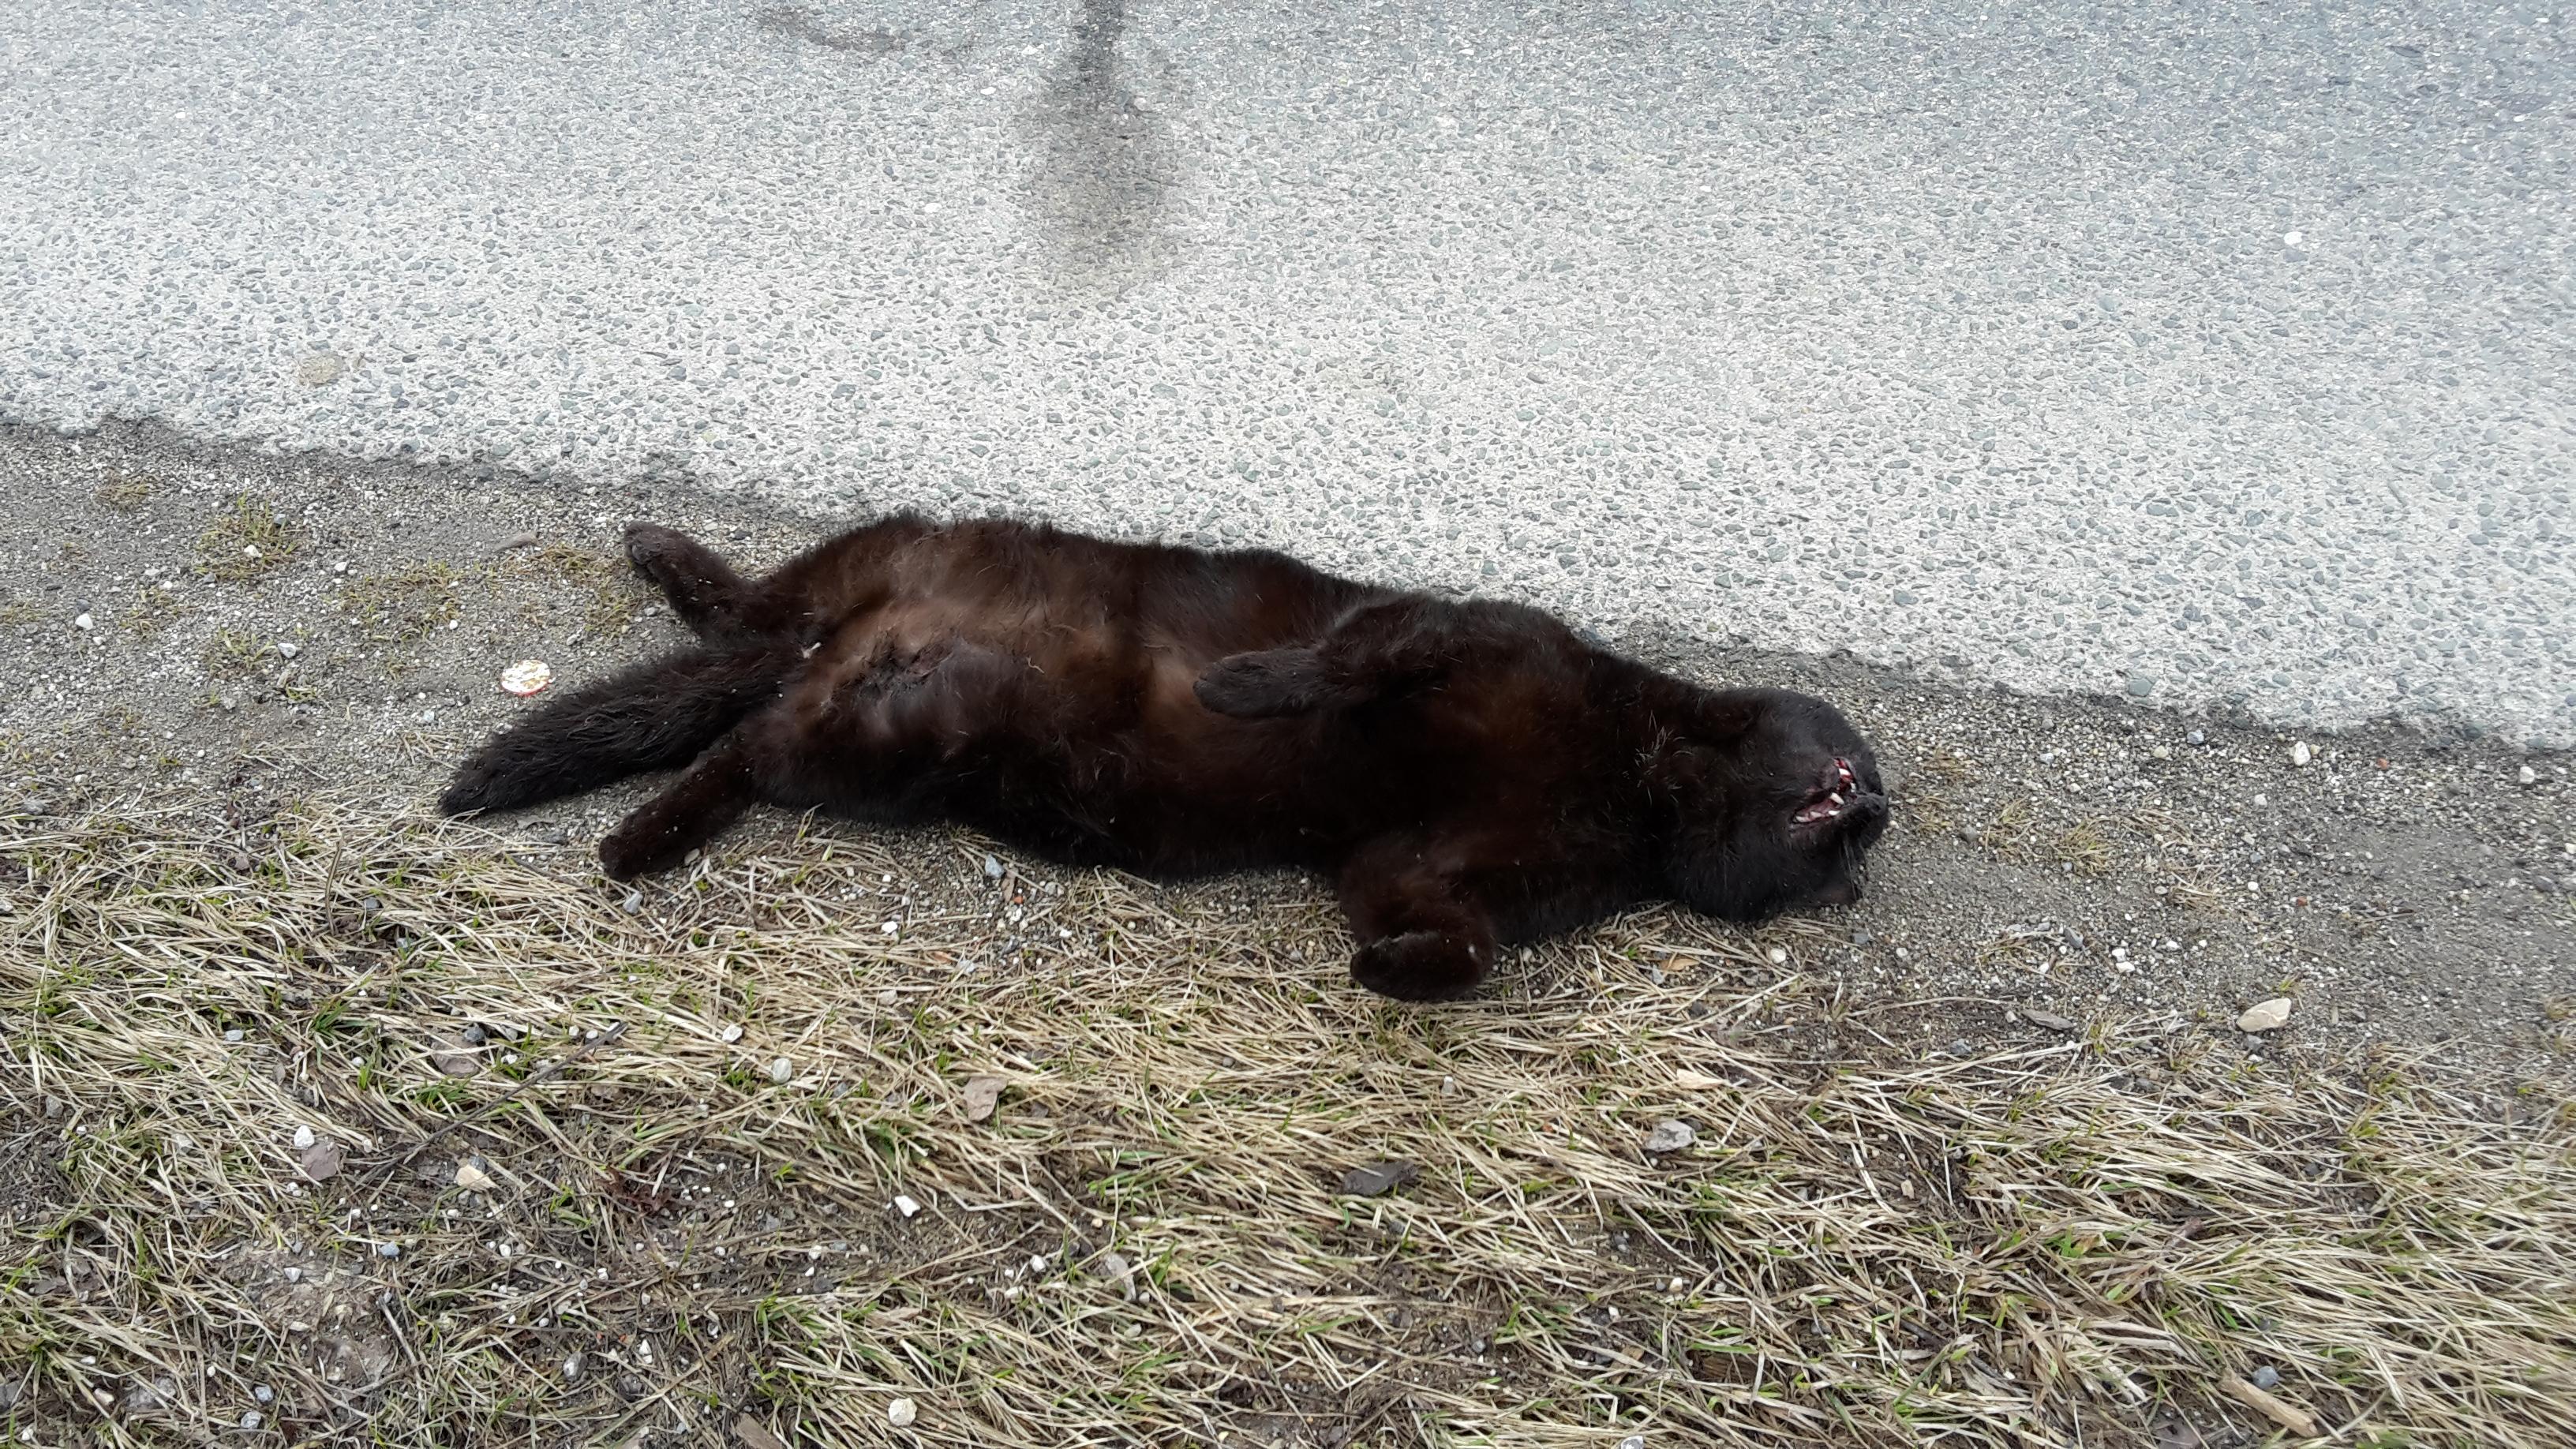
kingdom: Animalia
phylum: Chordata
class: Mammalia
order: Carnivora
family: Felidae
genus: Felis
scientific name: Felis catus
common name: Domestic cat
